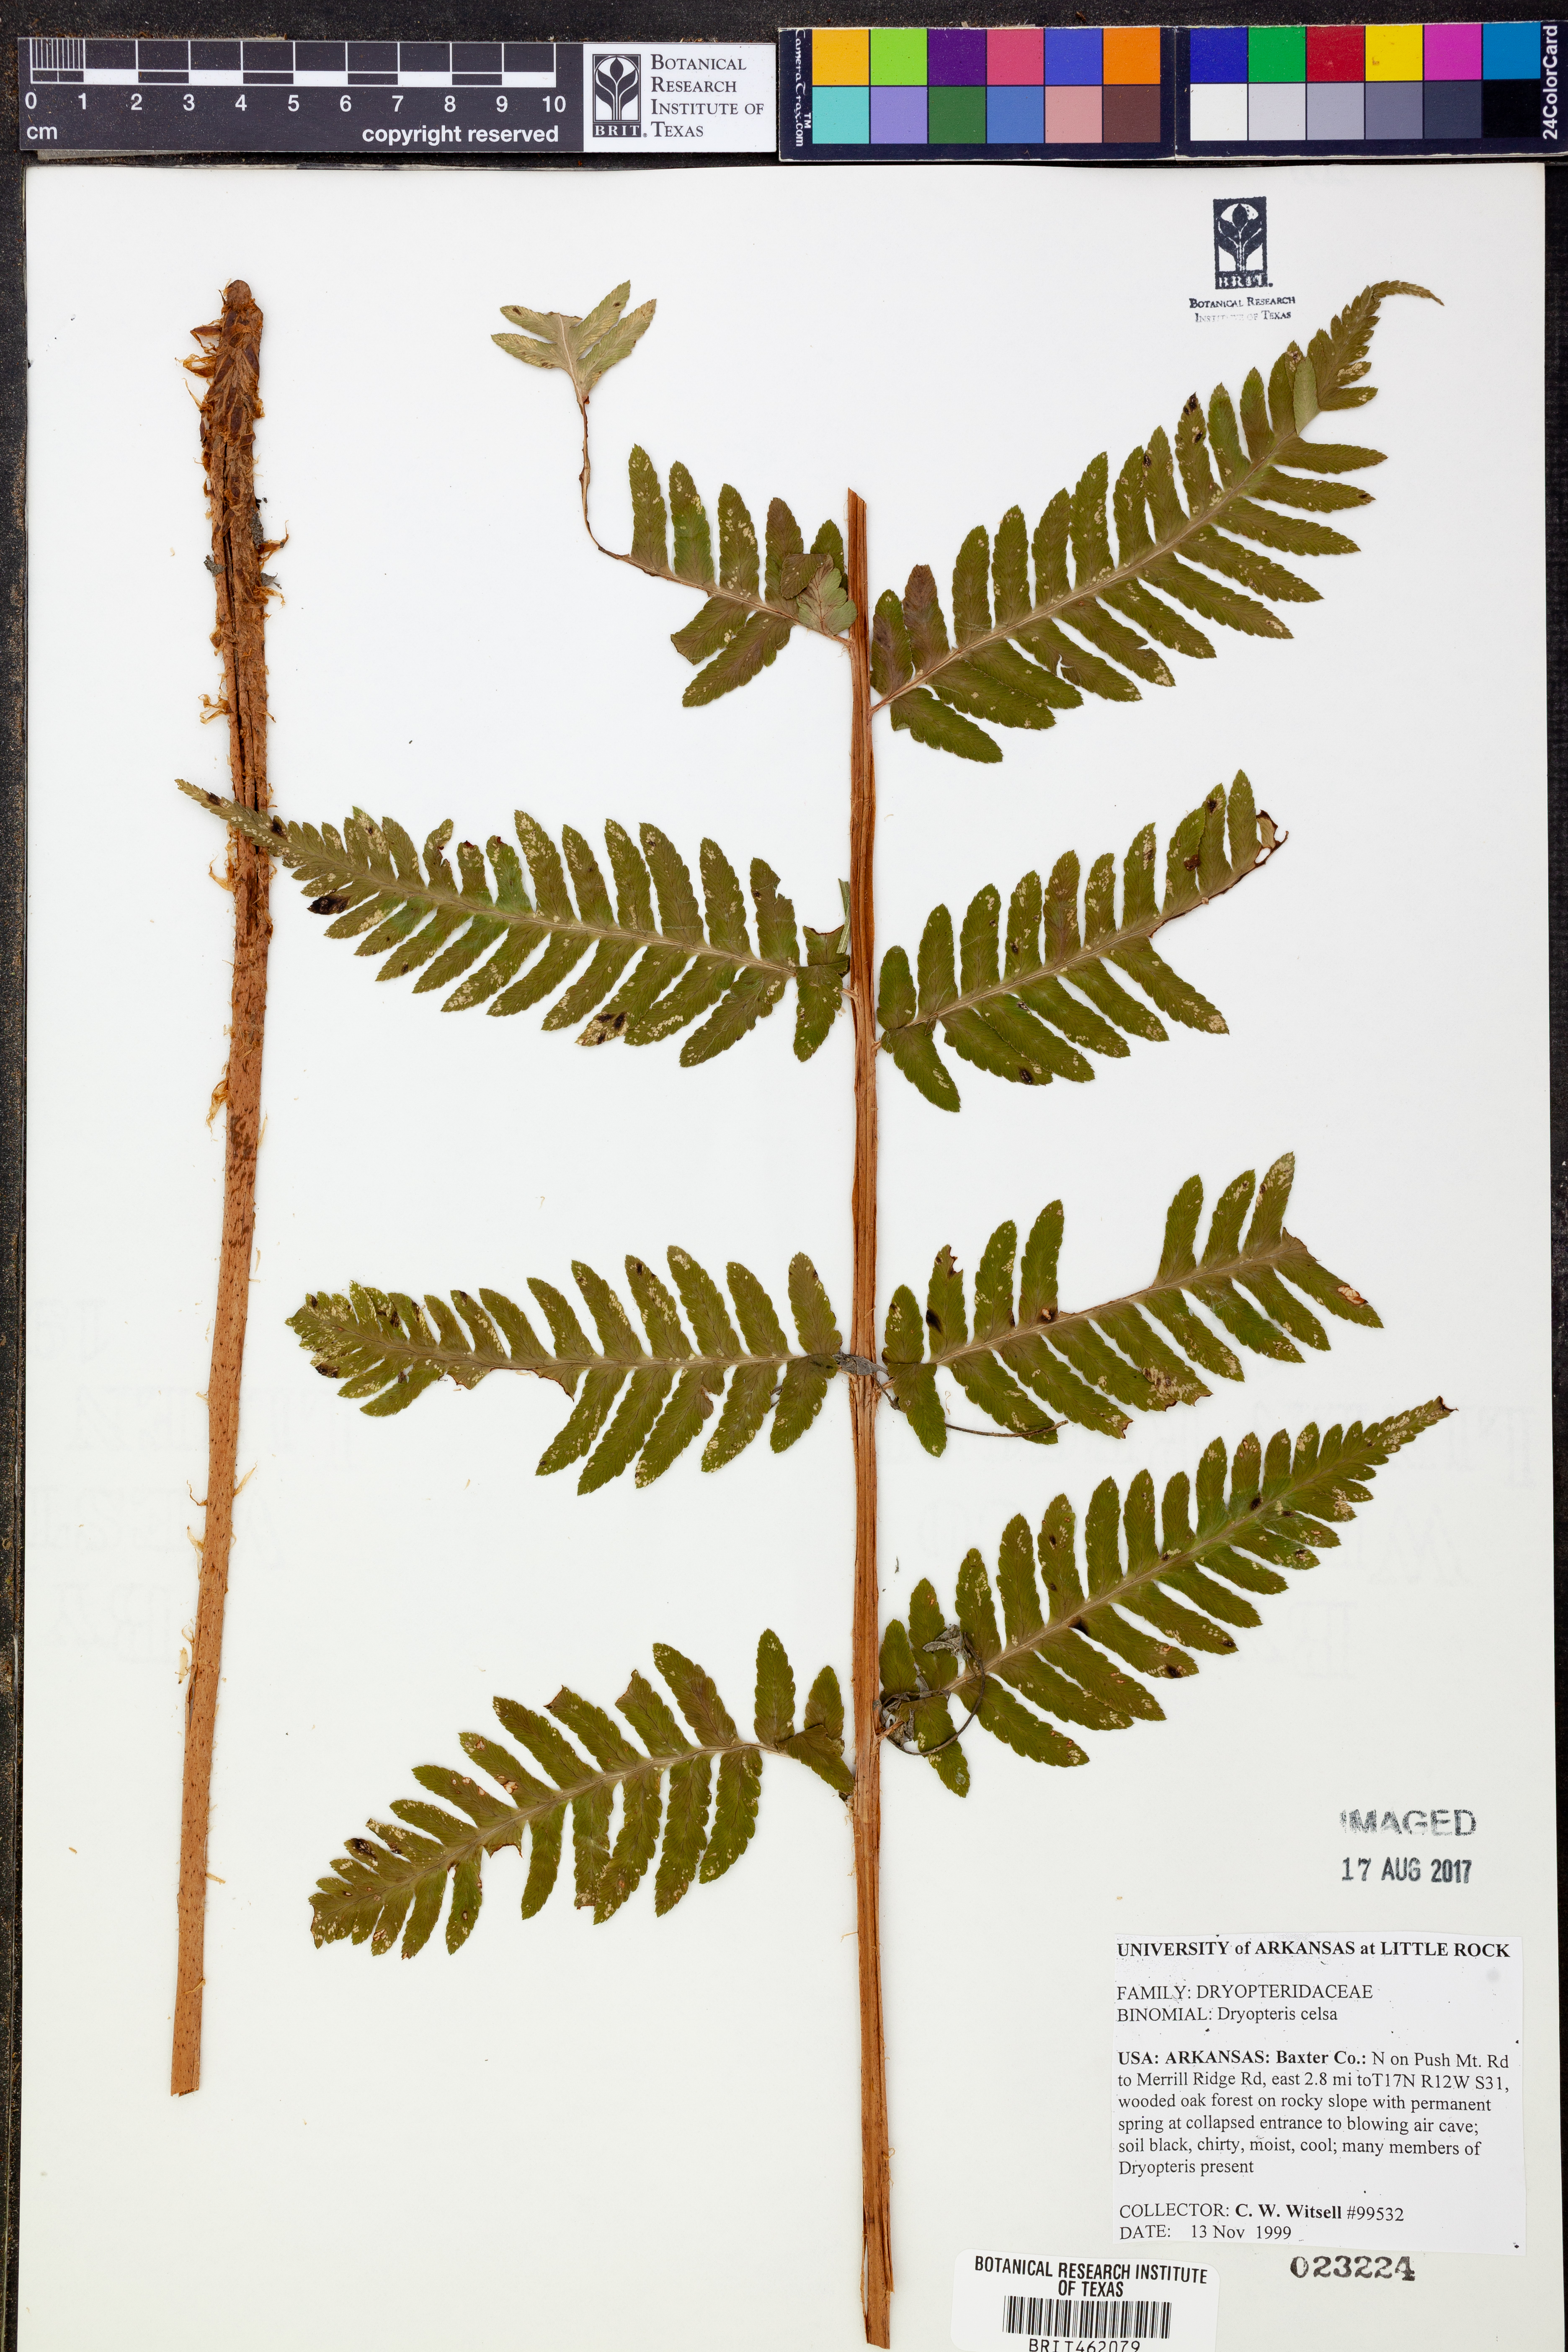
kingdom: Plantae
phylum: Tracheophyta
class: Polypodiopsida
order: Polypodiales
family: Dryopteridaceae
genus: Dryopteris
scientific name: Dryopteris celsa
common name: Log fern
